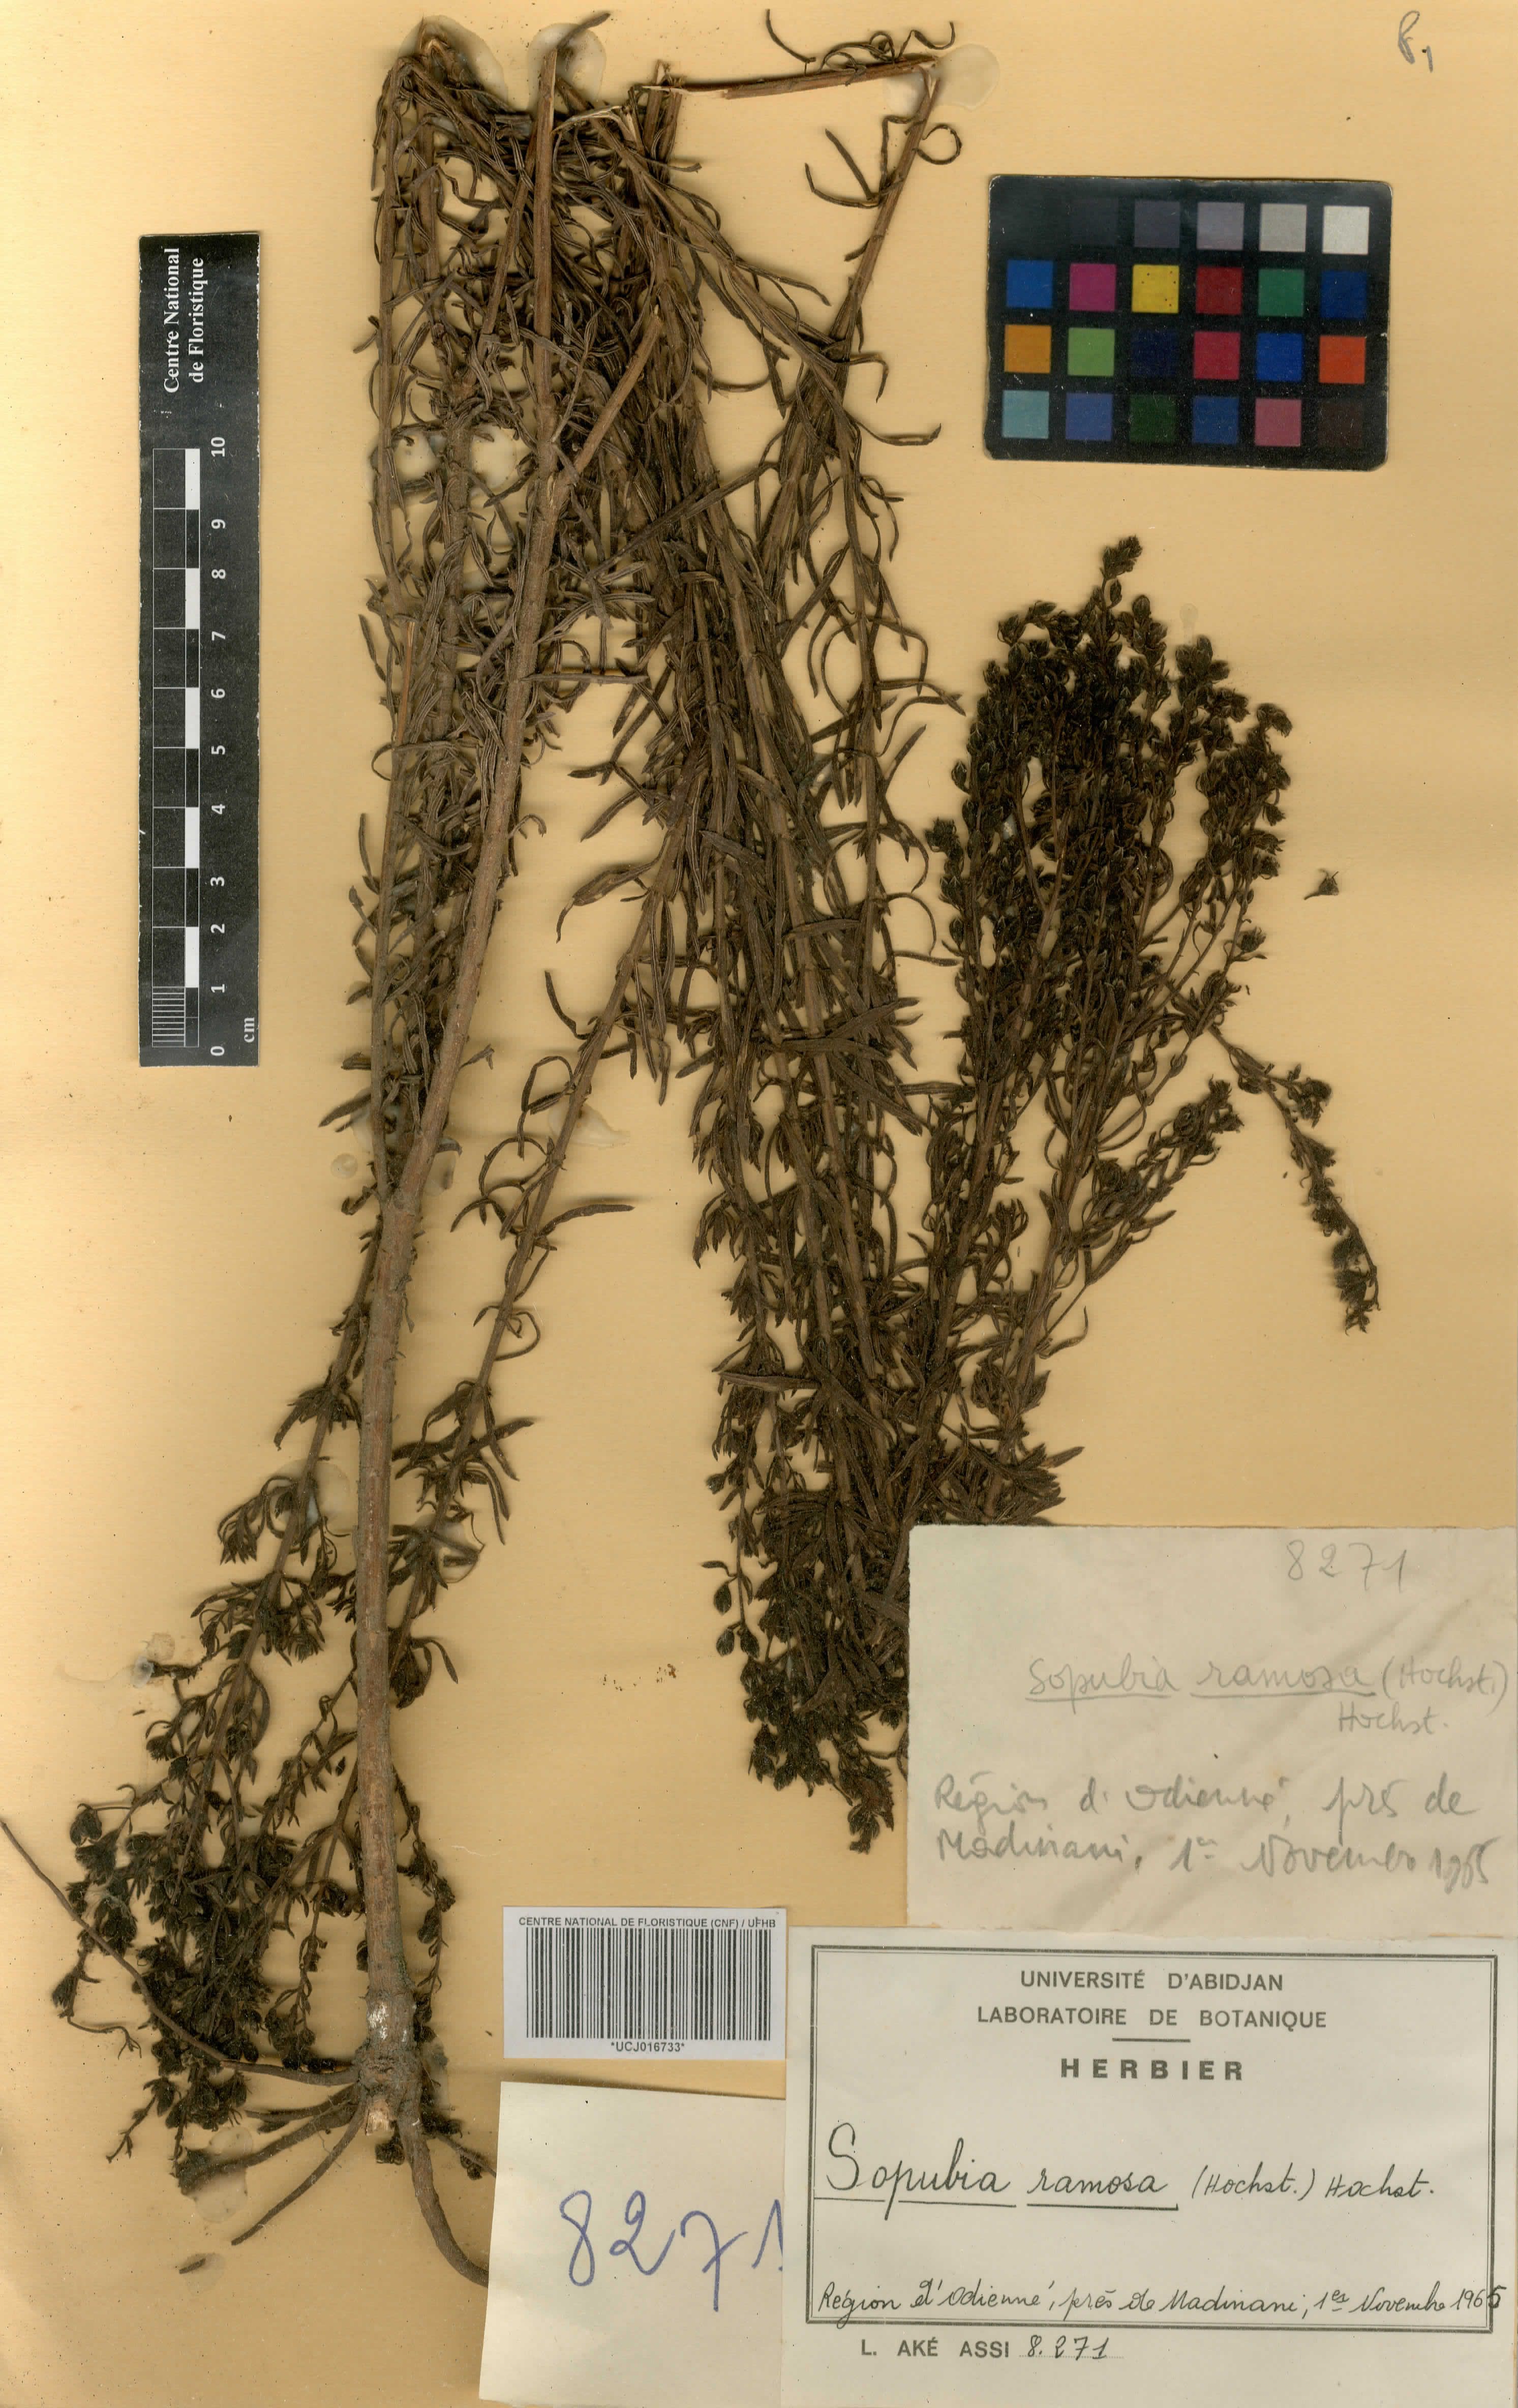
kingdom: Plantae
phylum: Tracheophyta
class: Magnoliopsida
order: Lamiales
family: Orobanchaceae
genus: Sopubia
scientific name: Sopubia ramosa
